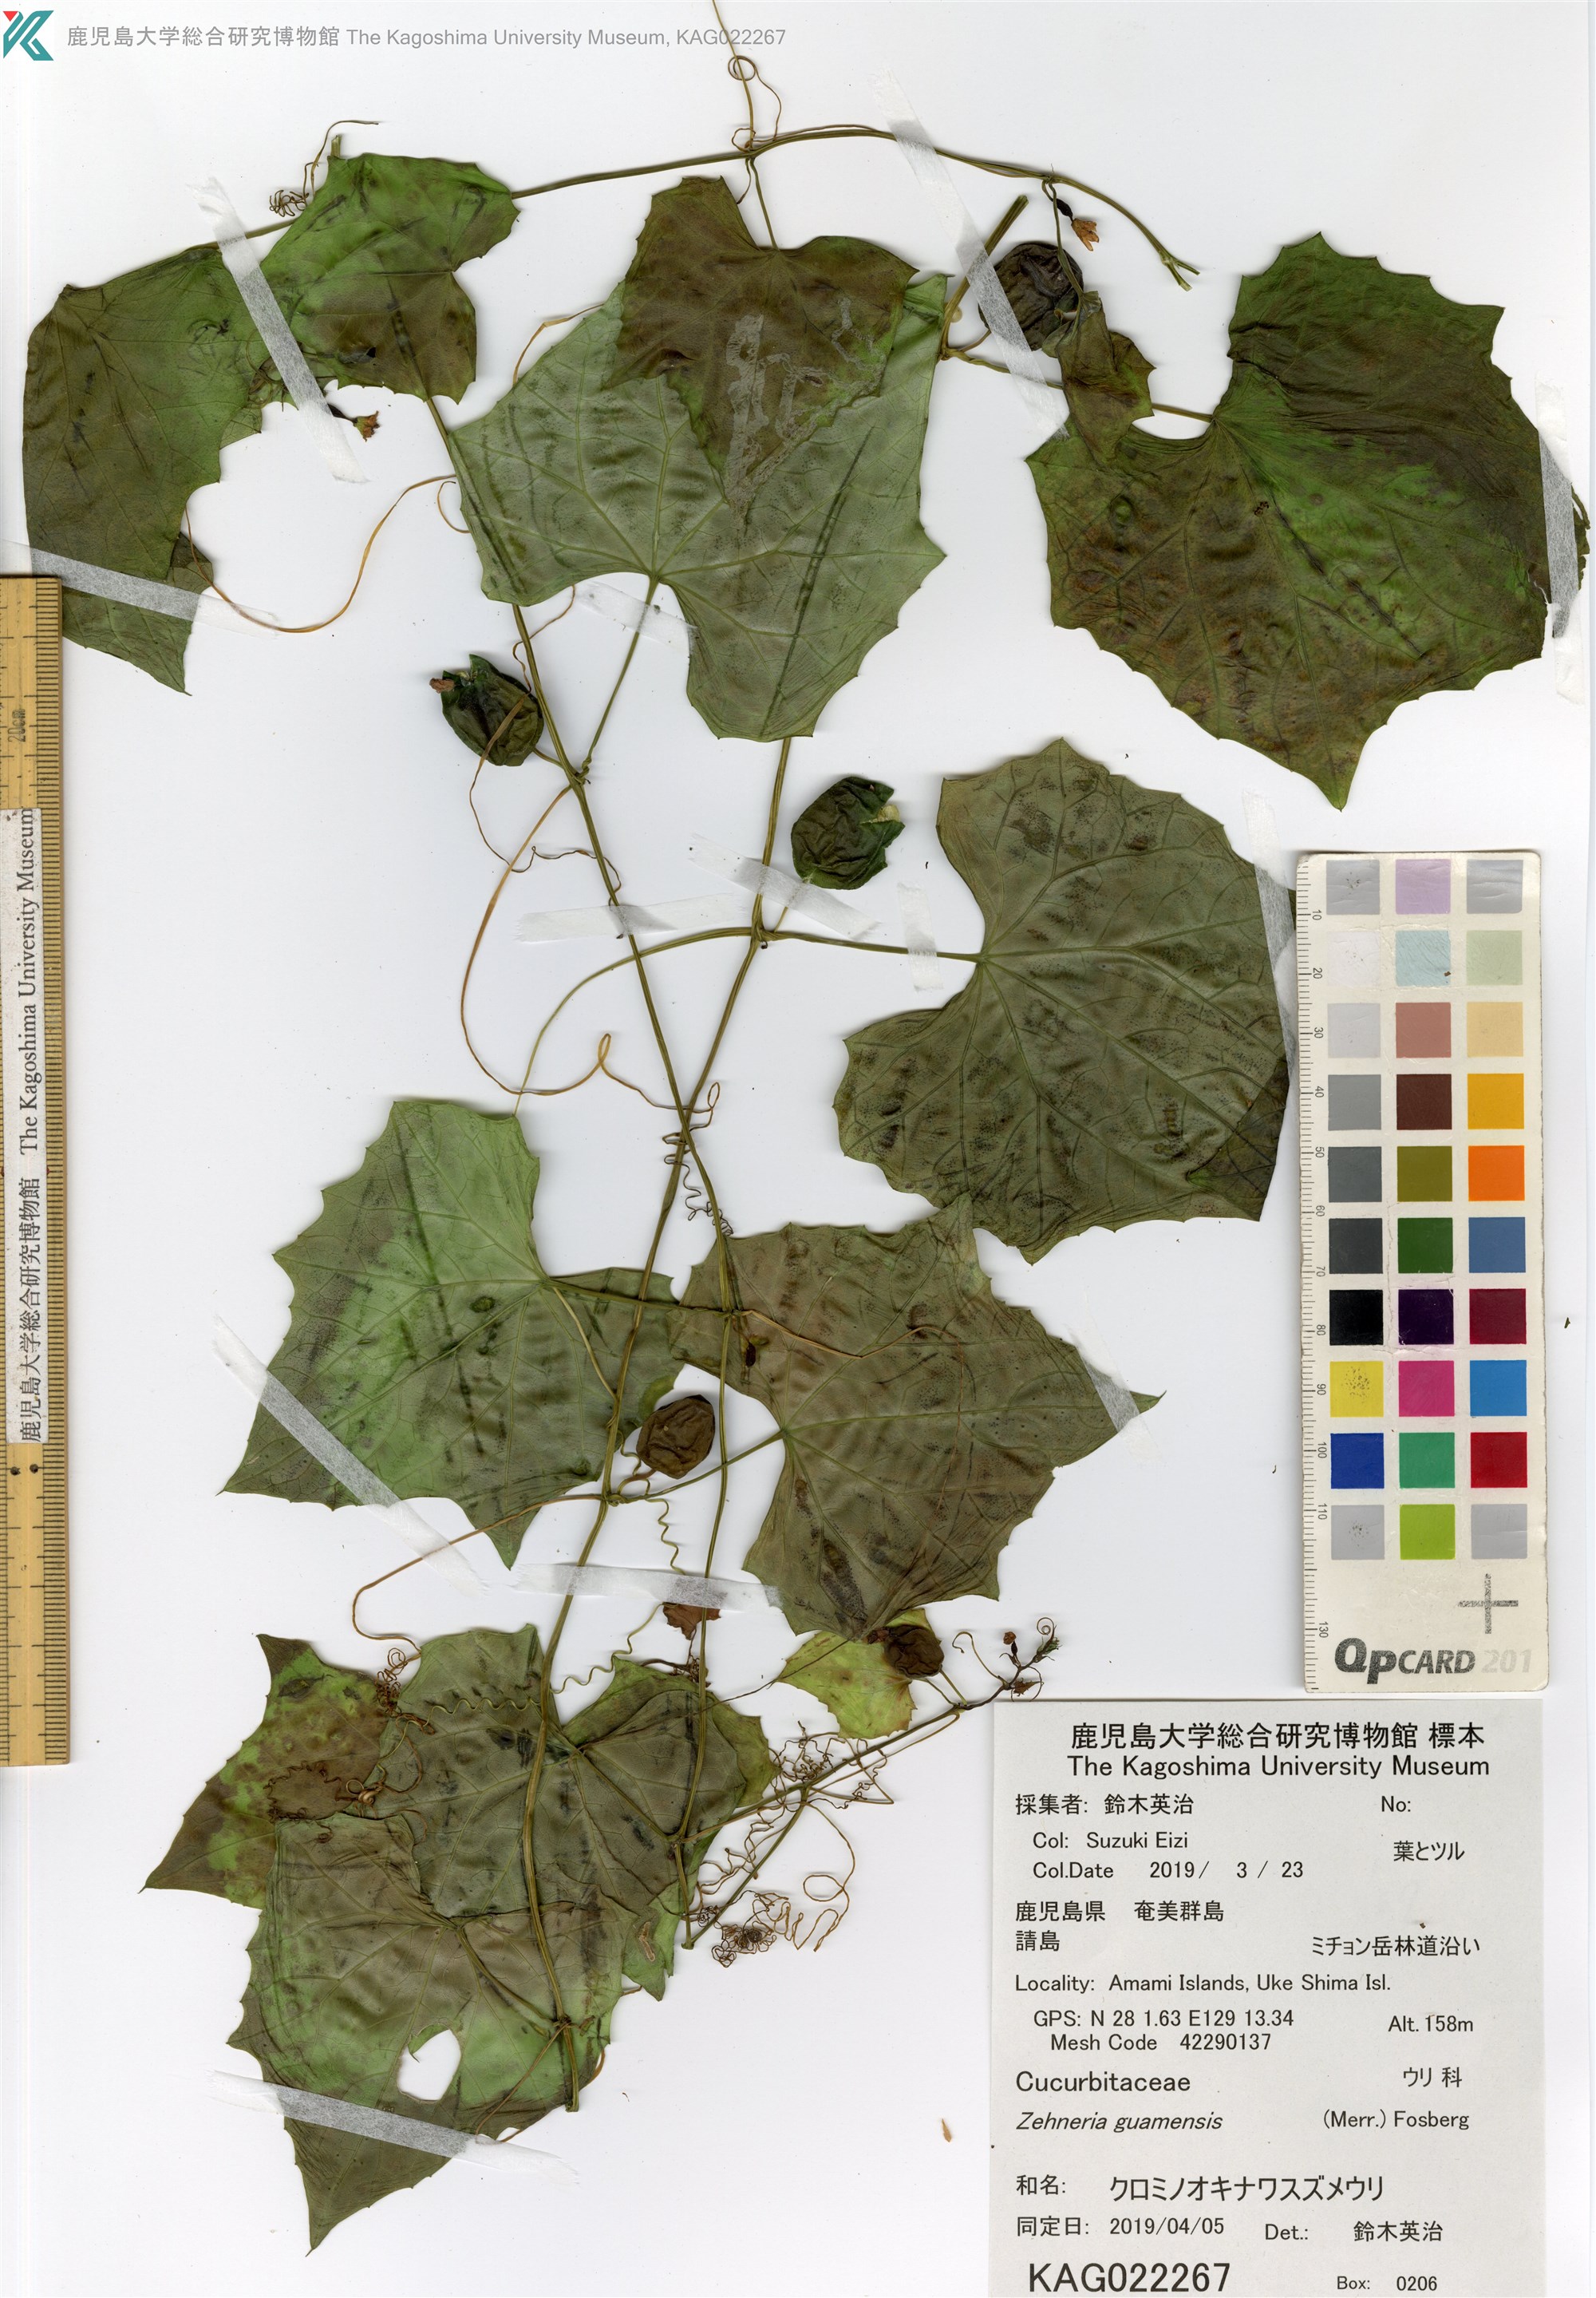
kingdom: Plantae
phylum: Tracheophyta
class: Magnoliopsida
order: Cucurbitales
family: Cucurbitaceae
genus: Zehneria
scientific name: Zehneria guamensis
